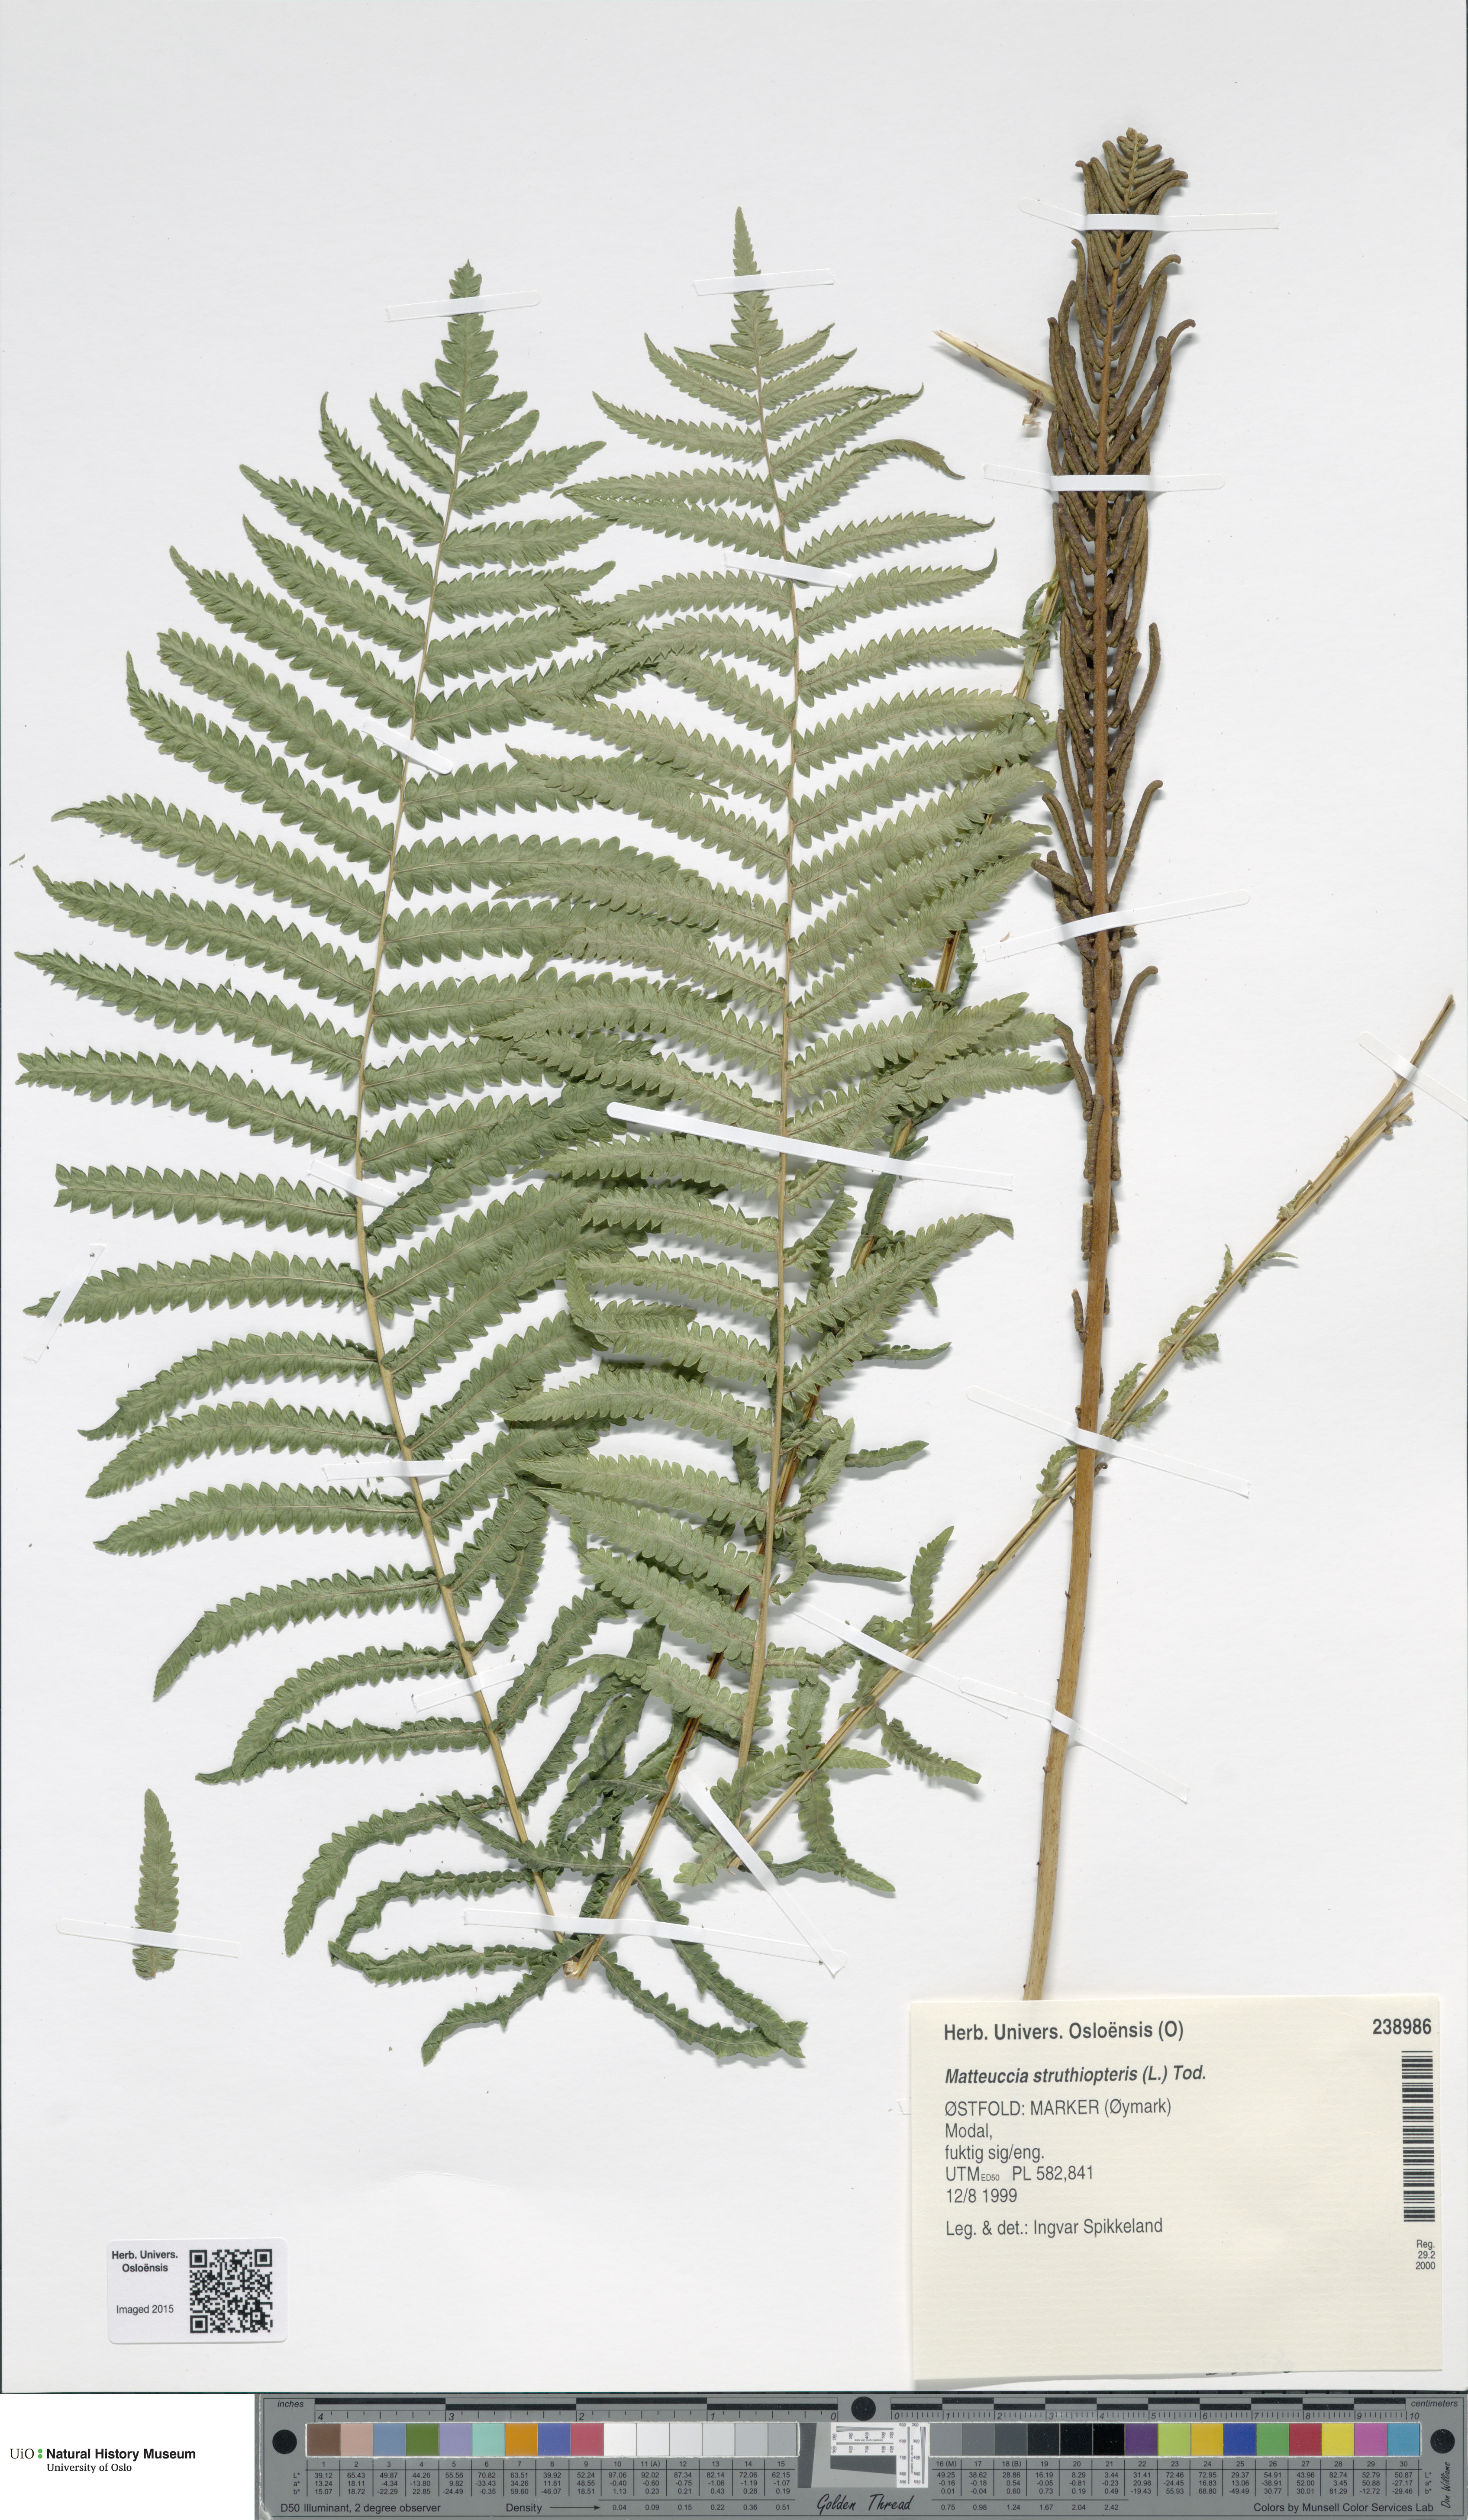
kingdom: Plantae
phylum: Tracheophyta
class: Polypodiopsida
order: Polypodiales
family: Onocleaceae
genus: Matteuccia
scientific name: Matteuccia struthiopteris
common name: Ostrich fern
